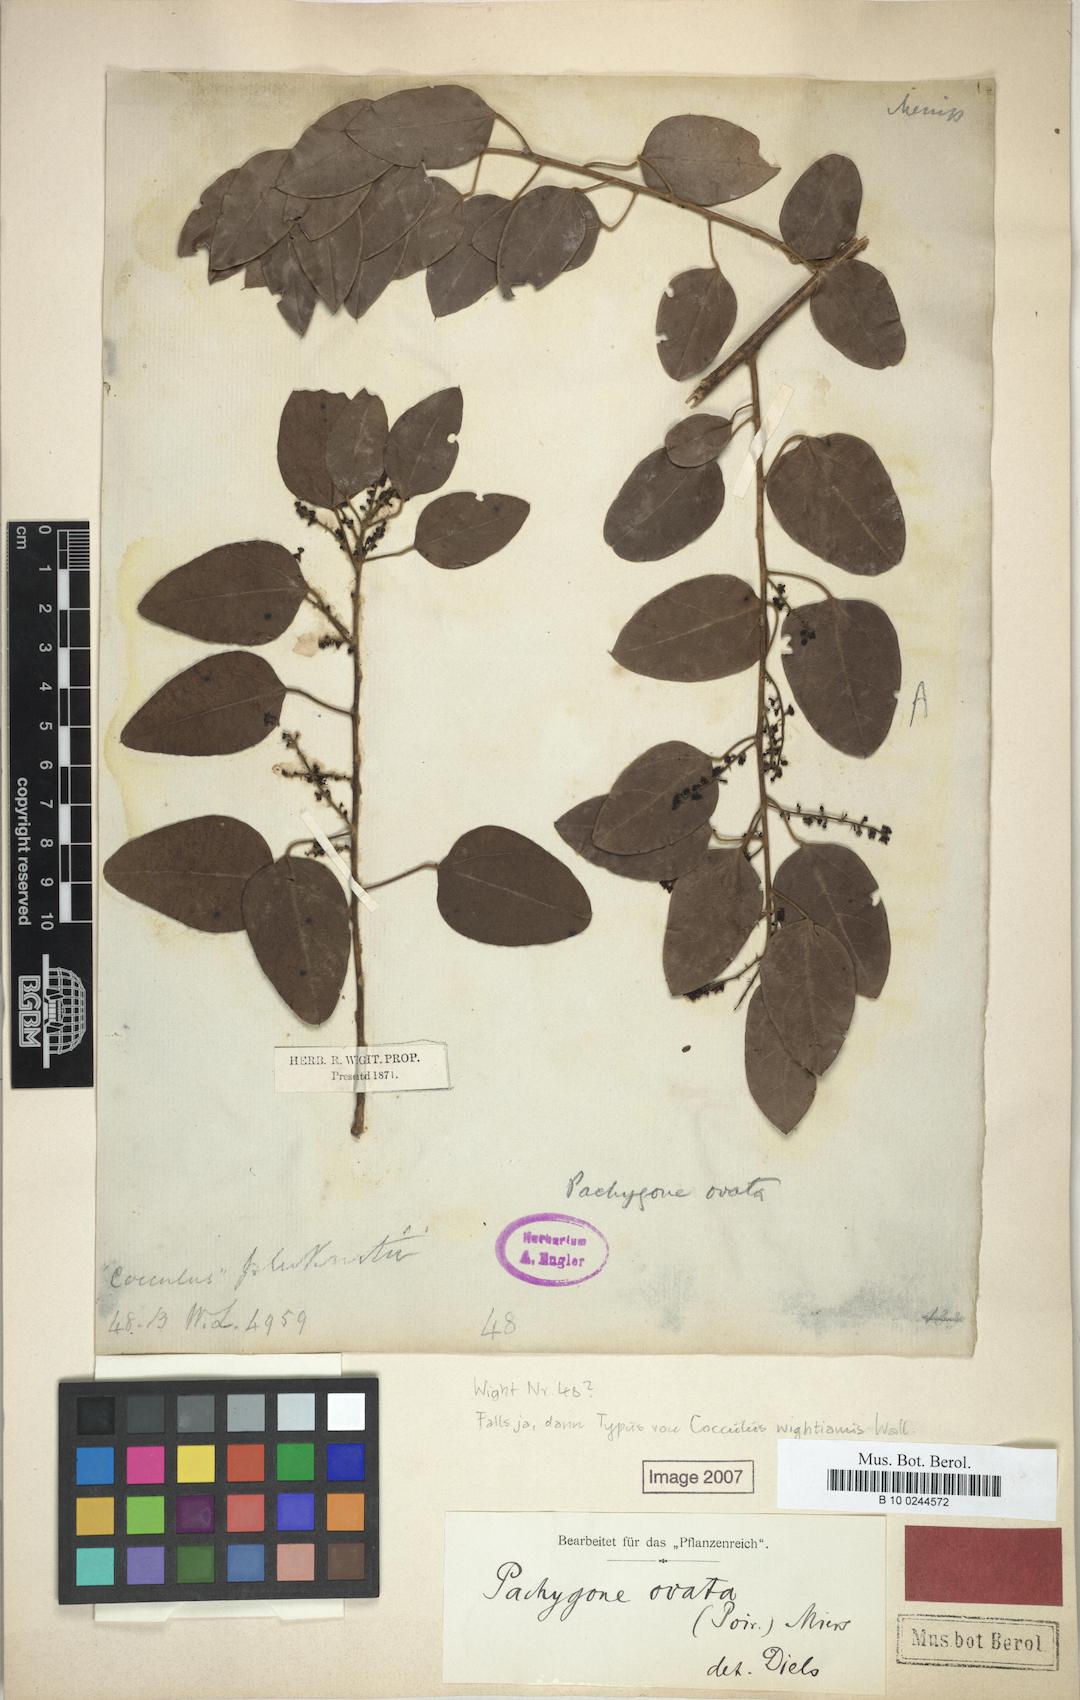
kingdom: Plantae
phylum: Tracheophyta
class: Magnoliopsida
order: Ranunculales
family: Menispermaceae
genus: Pachygone
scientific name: Pachygone ovata
